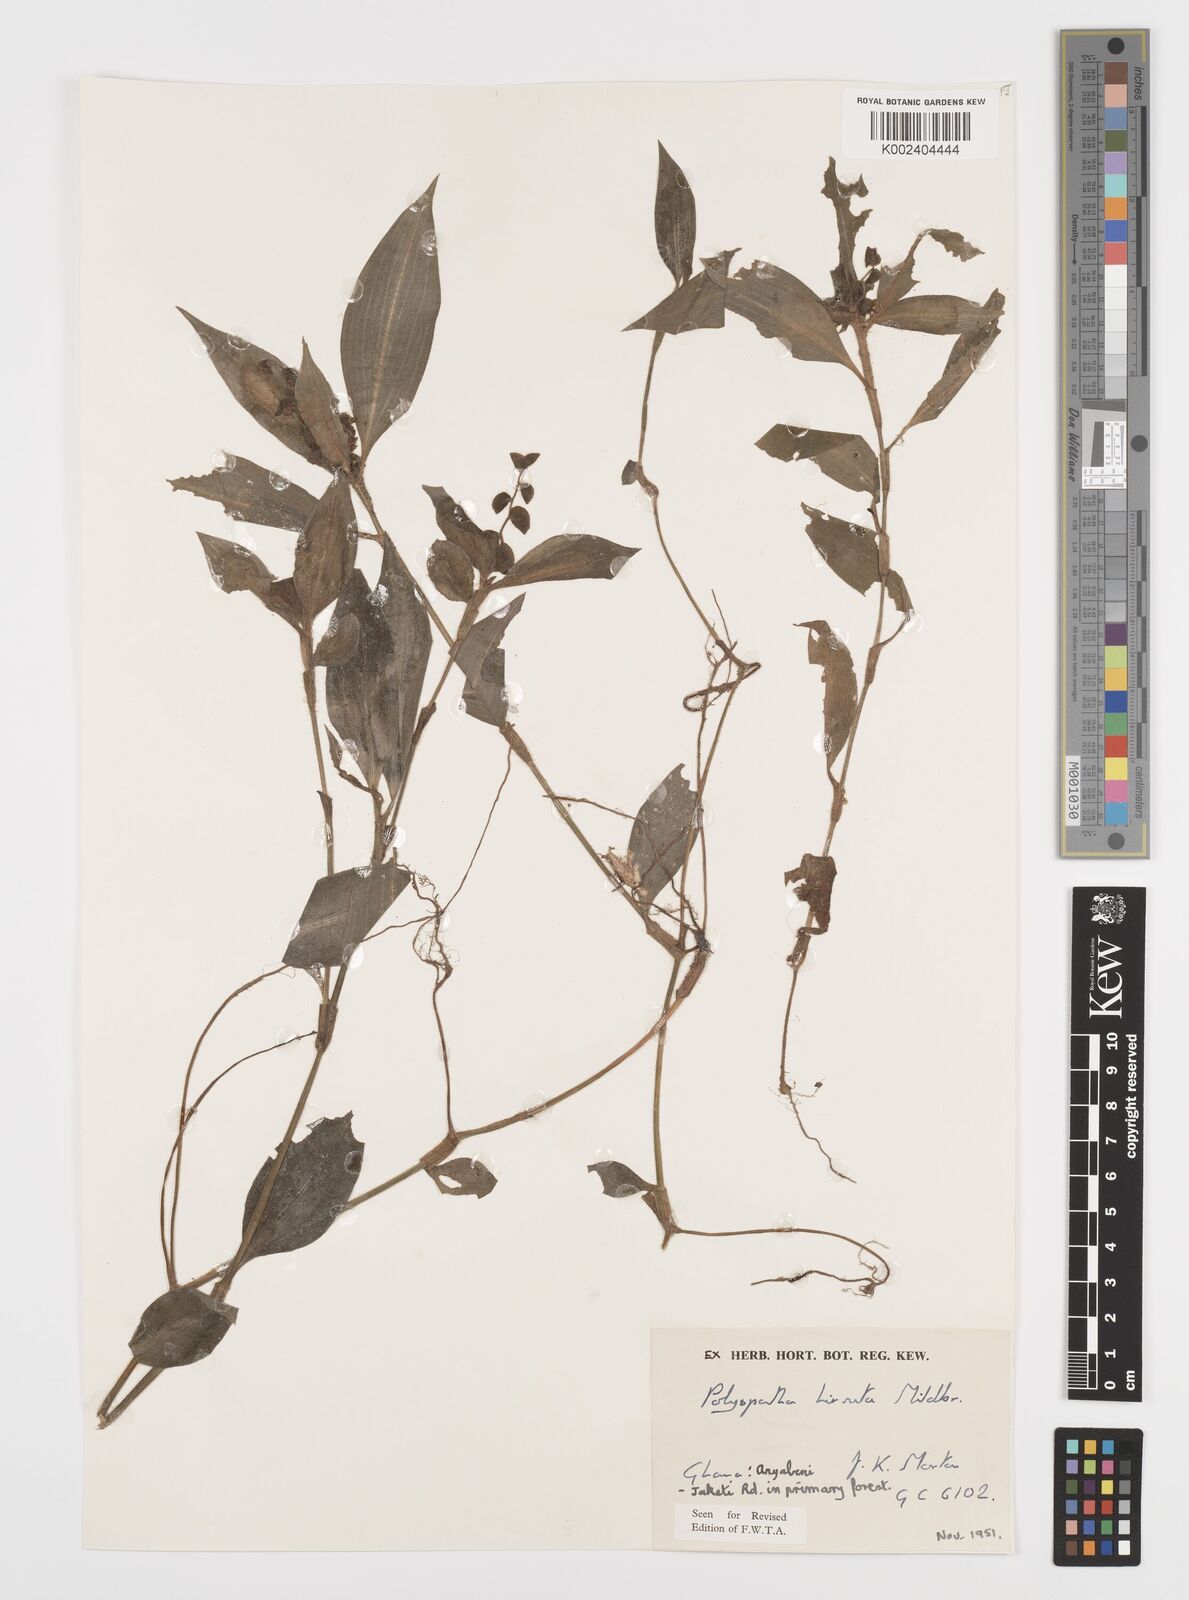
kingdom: Plantae
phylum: Tracheophyta
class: Liliopsida
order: Commelinales
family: Commelinaceae
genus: Polyspatha
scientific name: Polyspatha hirsuta
